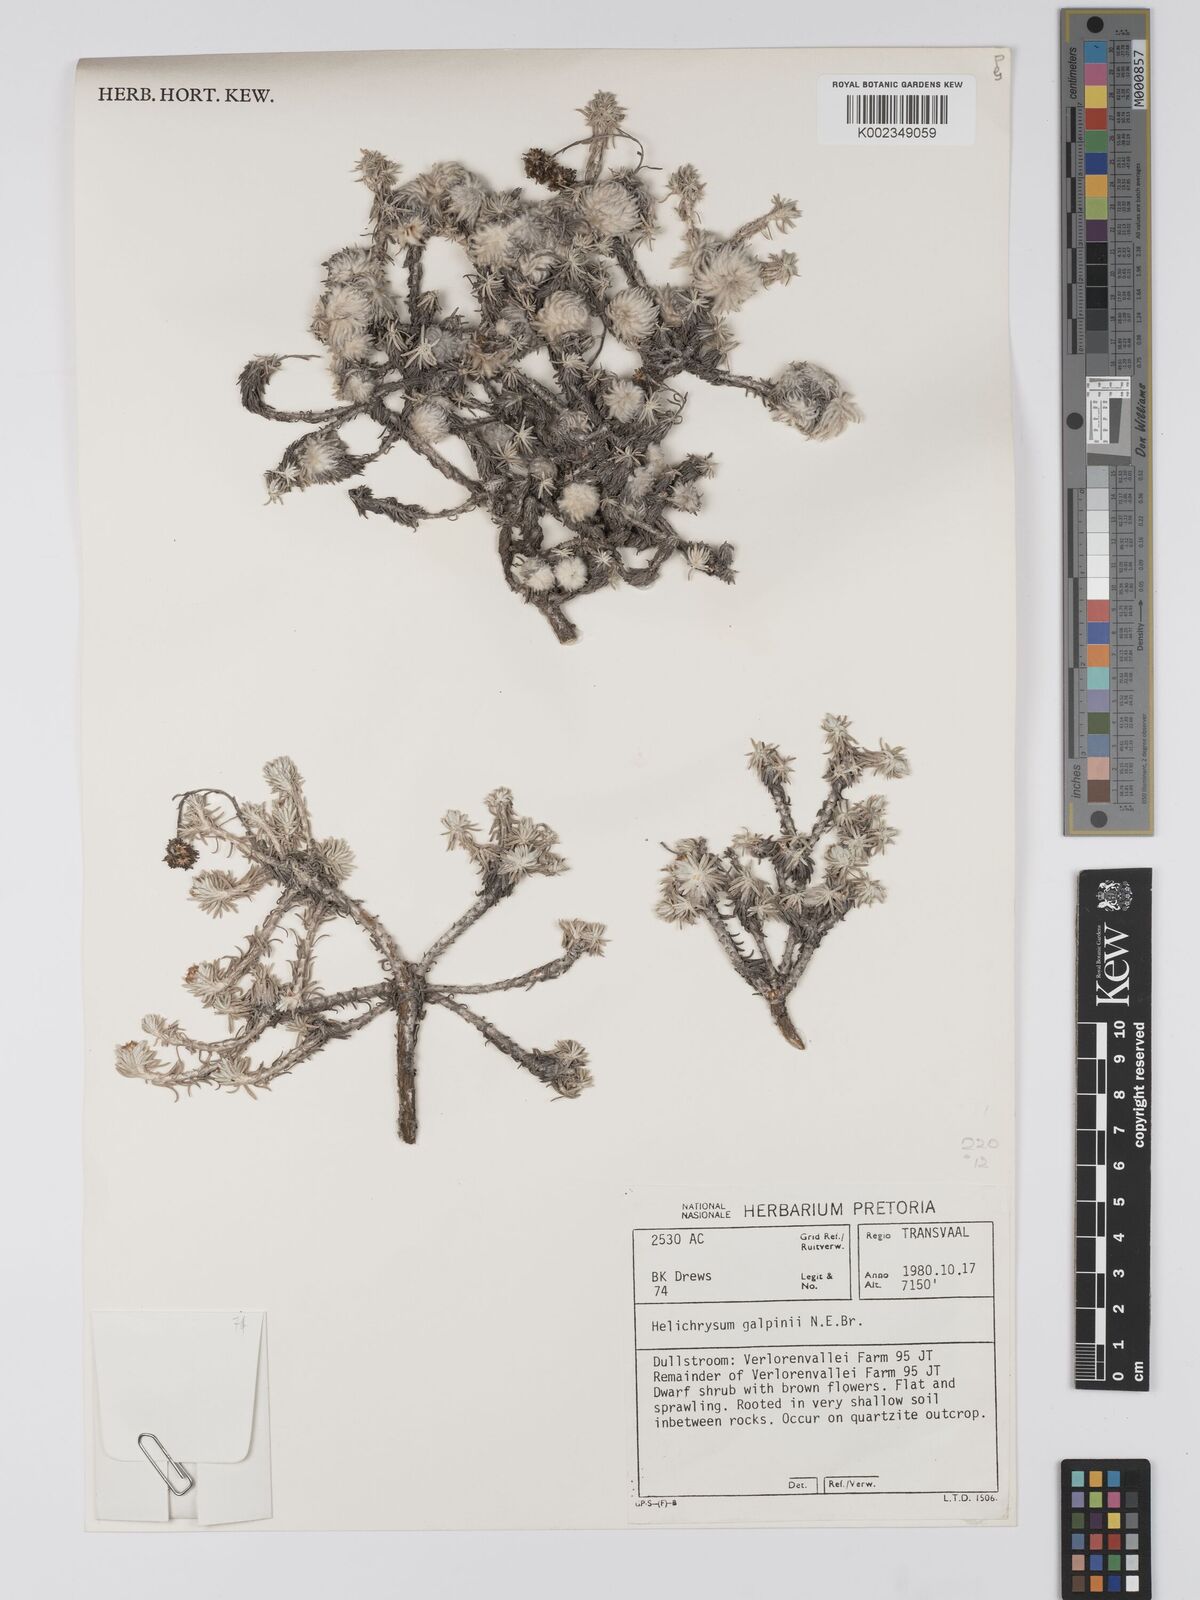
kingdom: Plantae
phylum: Tracheophyta
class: Magnoliopsida
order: Asterales
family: Asteraceae
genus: Helichrysum
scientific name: Helichrysum galpinii
